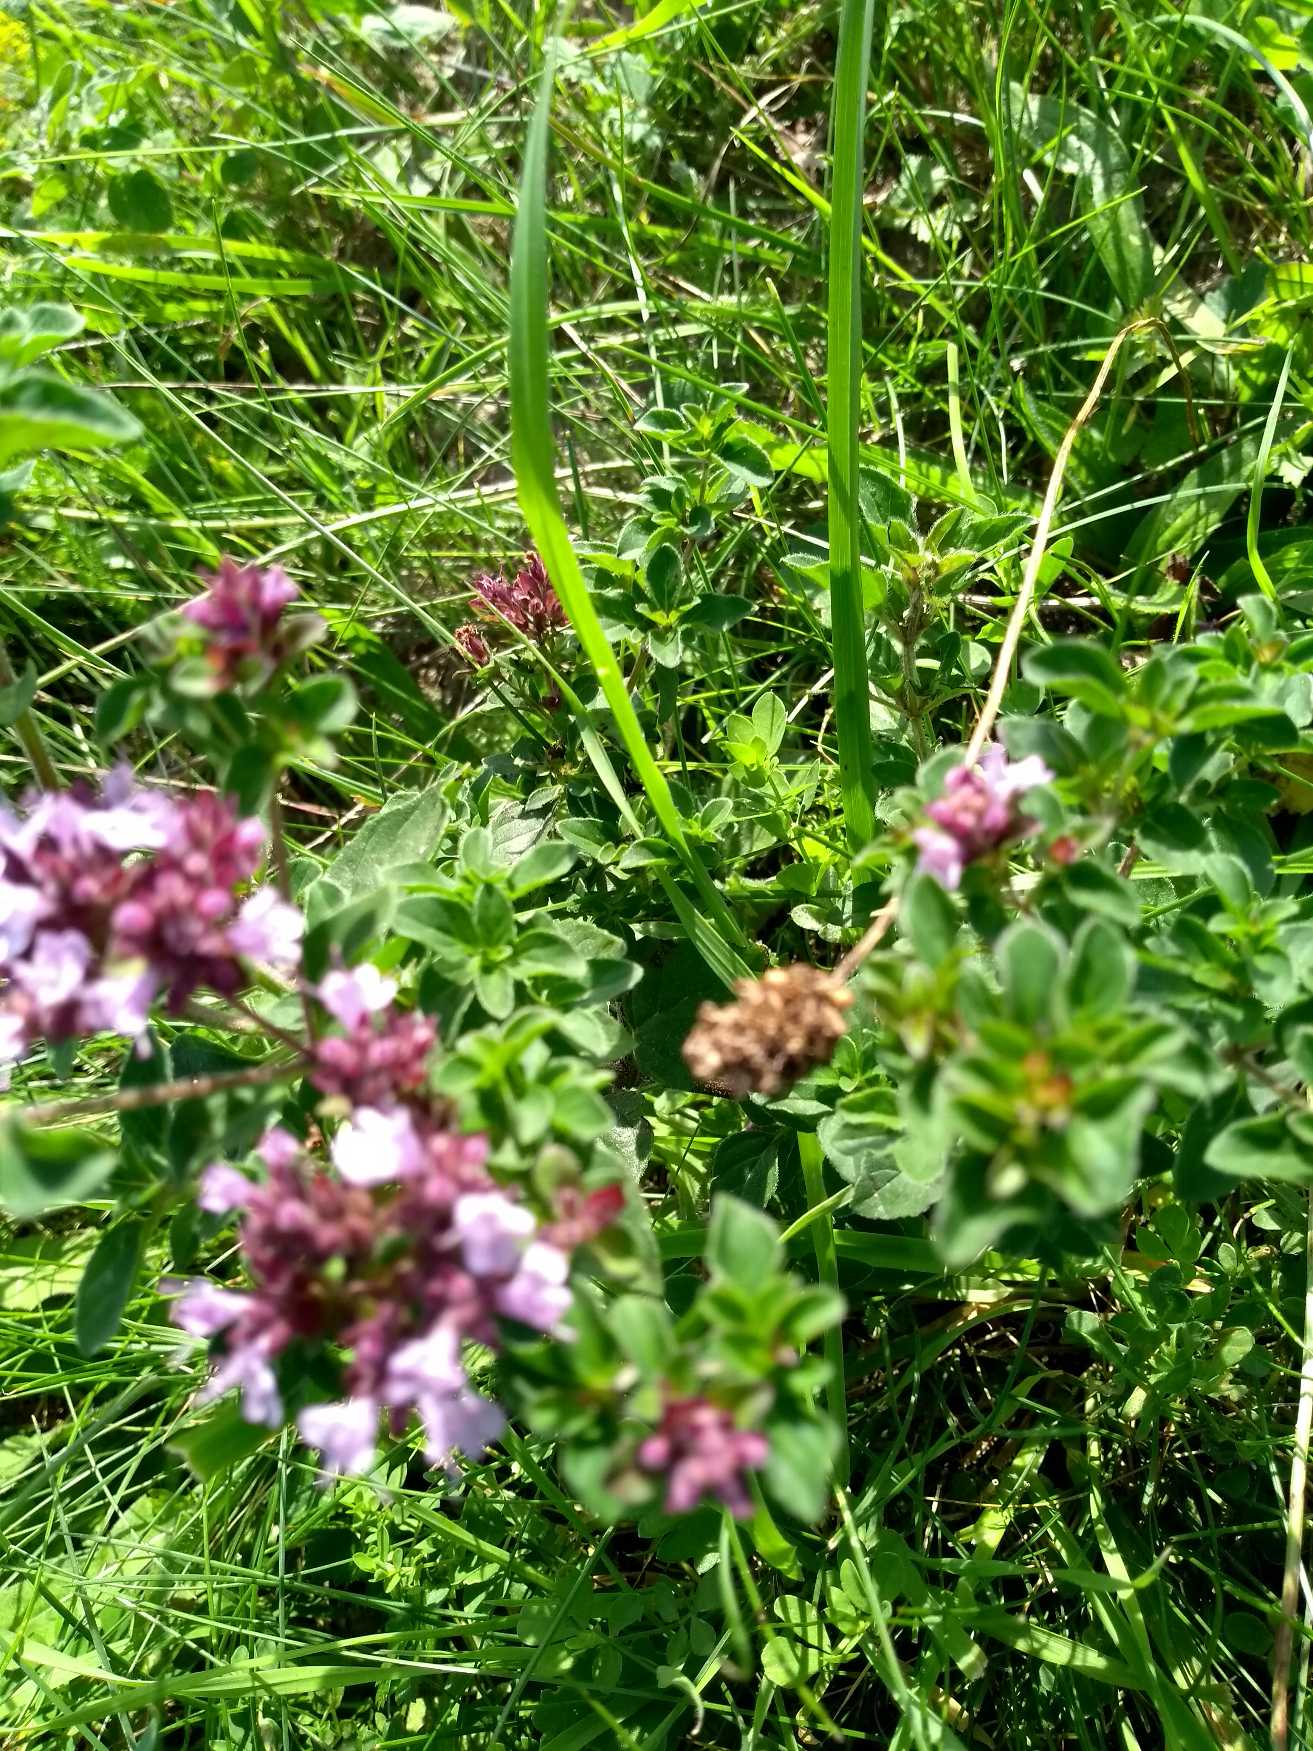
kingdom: Plantae
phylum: Tracheophyta
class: Magnoliopsida
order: Lamiales
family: Lamiaceae
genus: Origanum
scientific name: Origanum vulgare
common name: Merian
